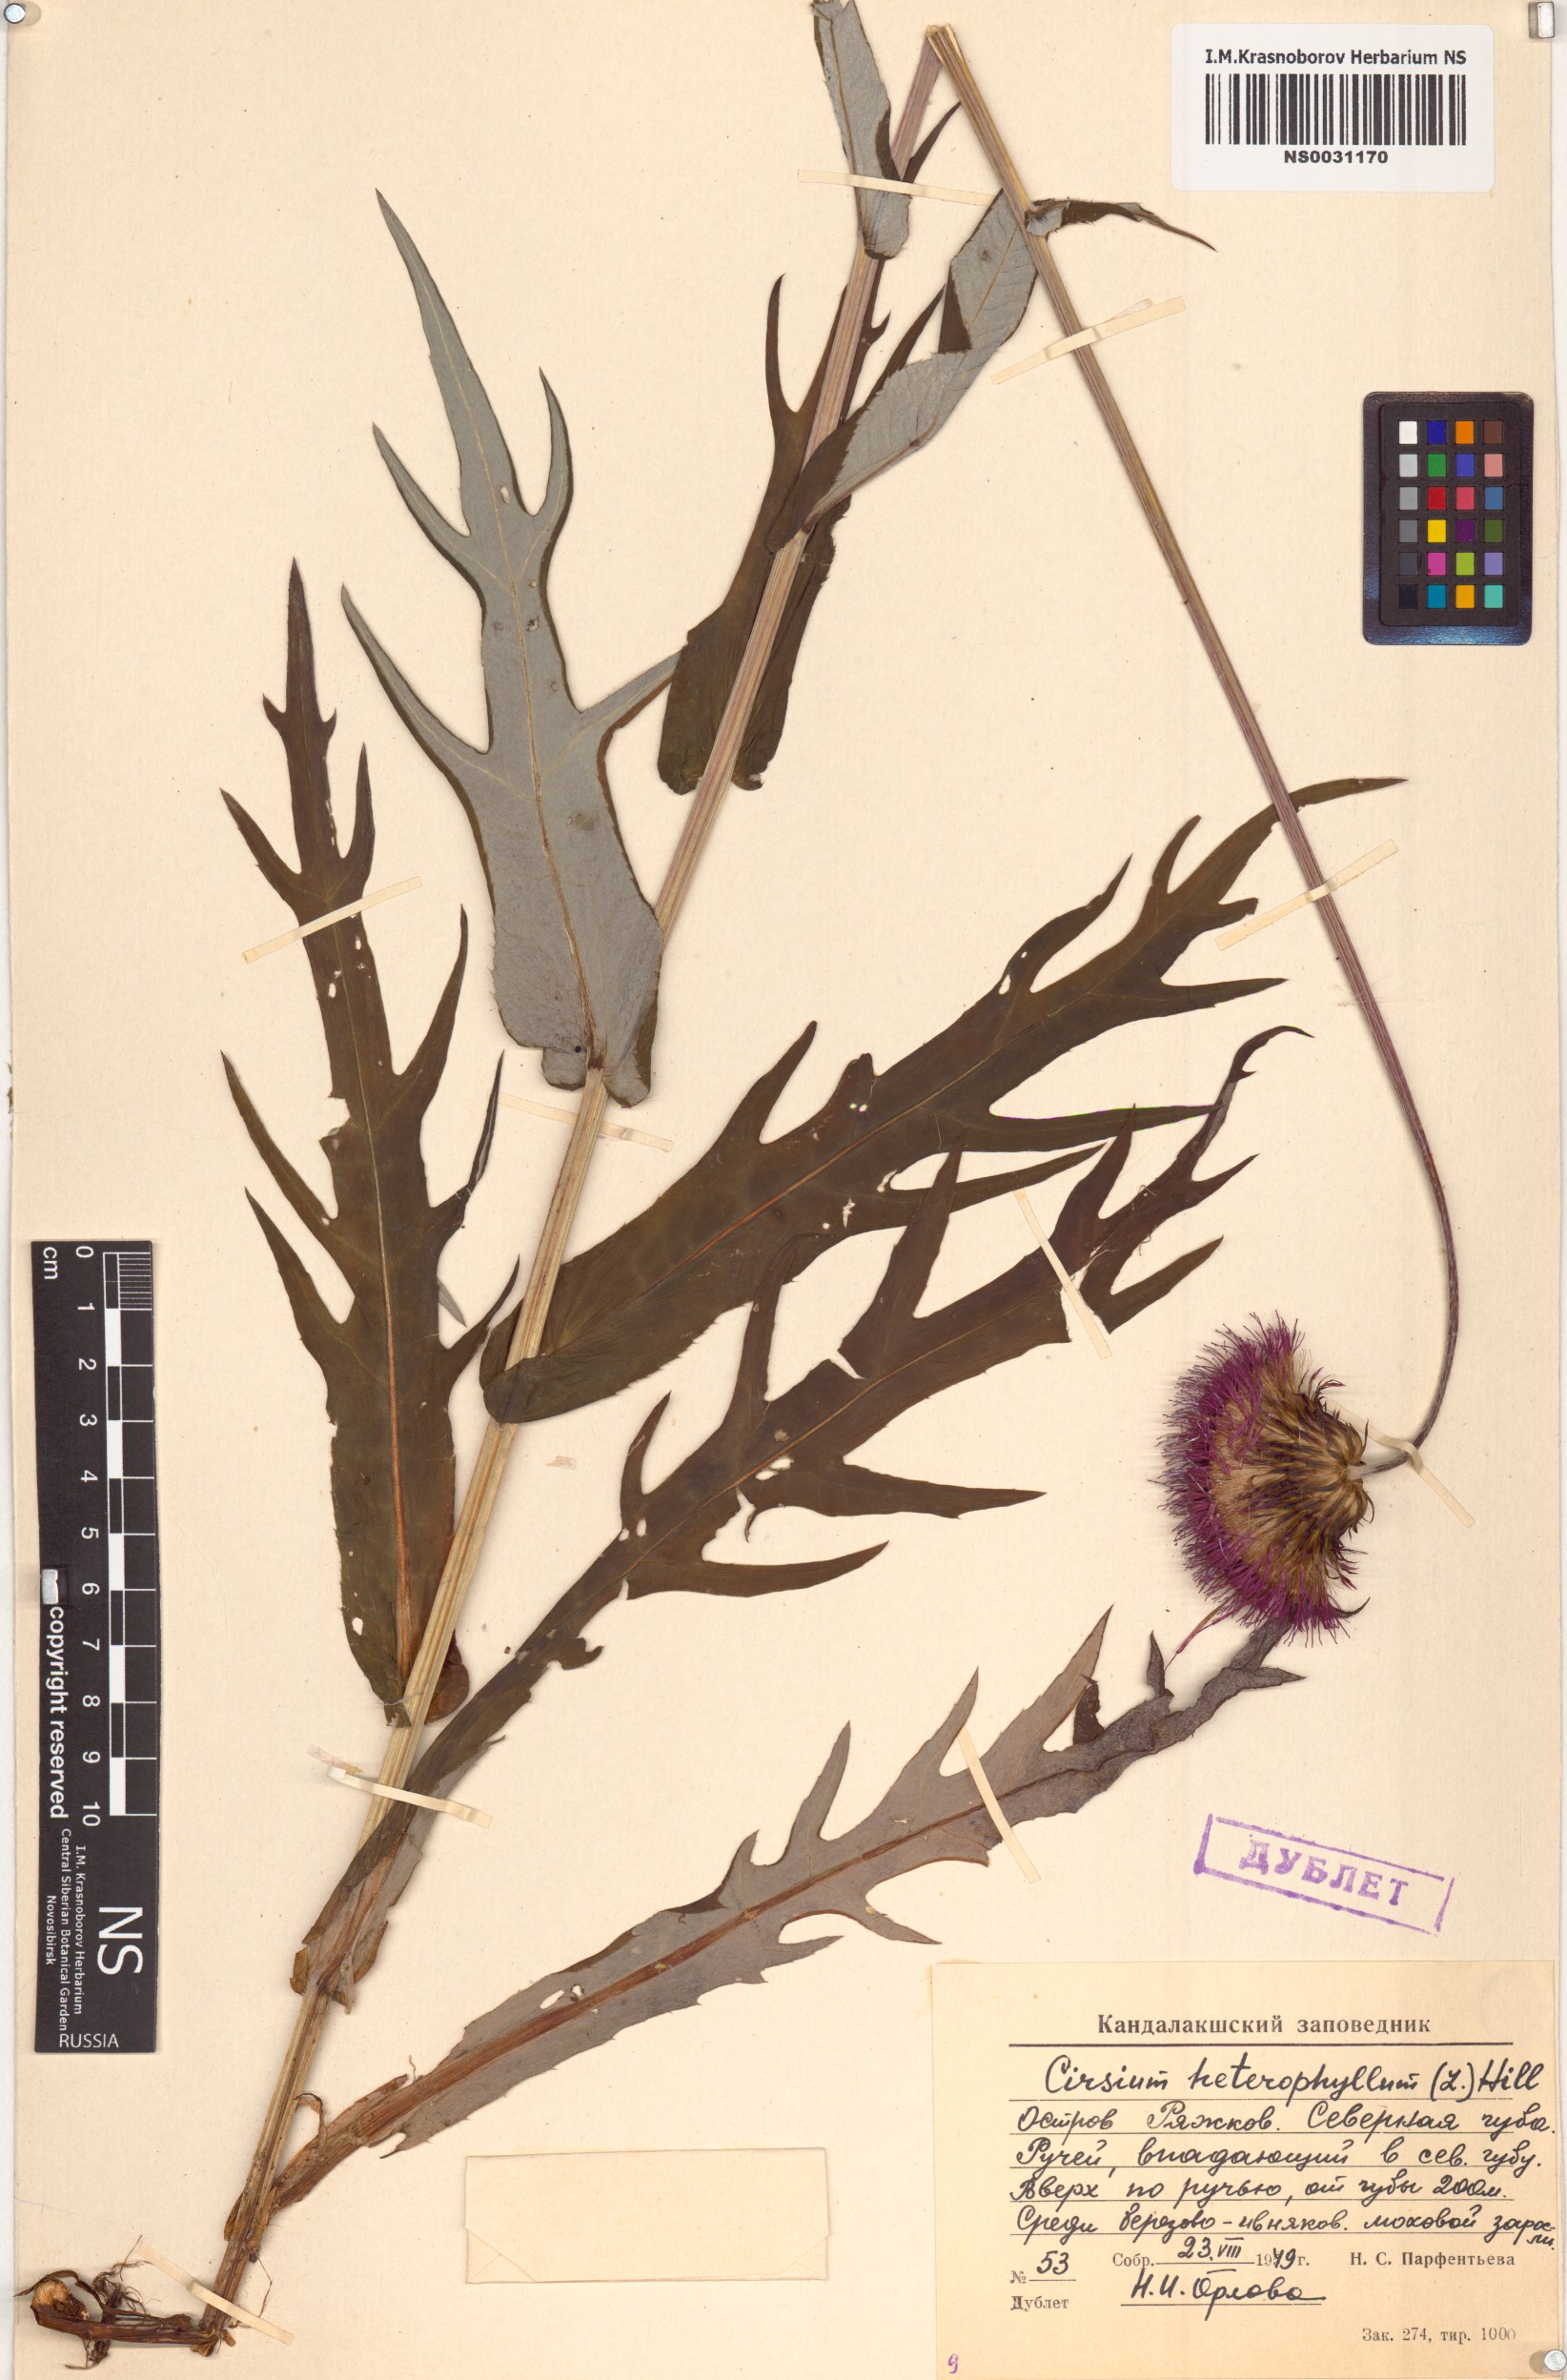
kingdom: Plantae
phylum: Tracheophyta
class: Magnoliopsida
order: Asterales
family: Asteraceae
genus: Cirsium
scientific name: Cirsium heterophyllum
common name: Melancholy thistle
